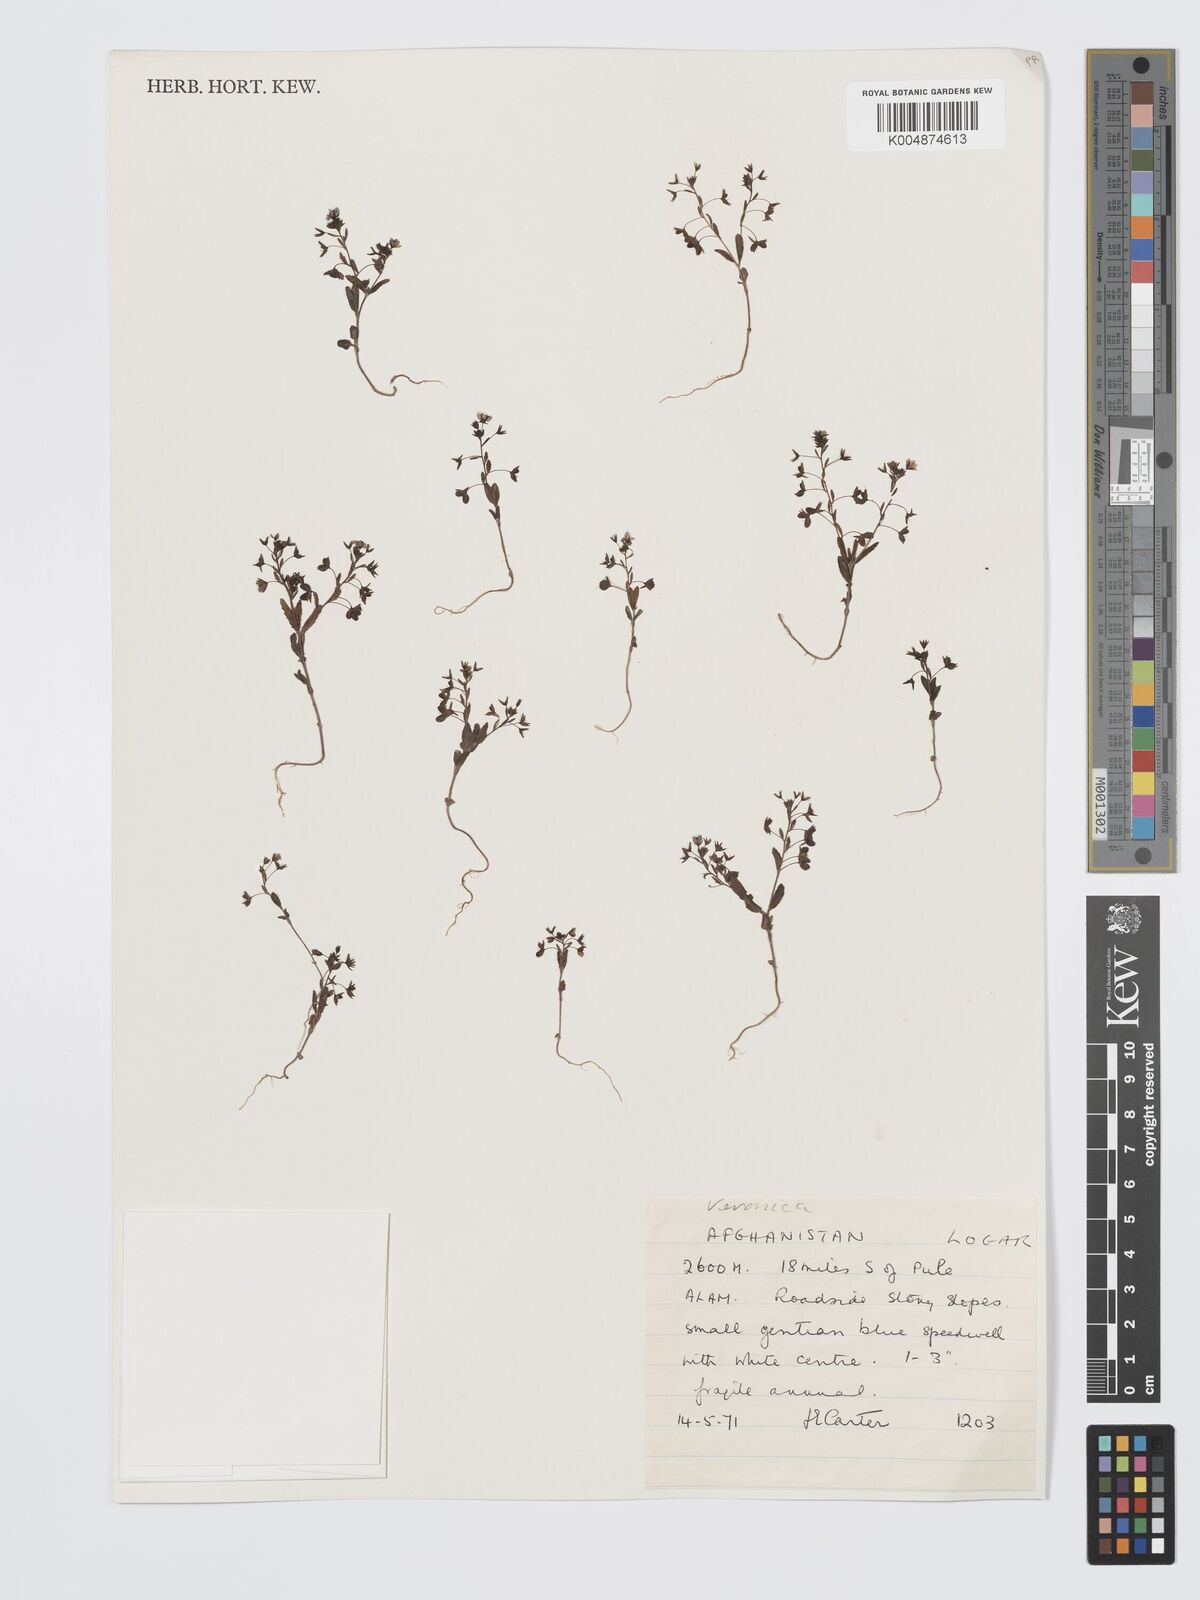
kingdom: Plantae
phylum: Tracheophyta
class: Magnoliopsida
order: Lamiales
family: Plantaginaceae
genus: Veronica
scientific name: Veronica
